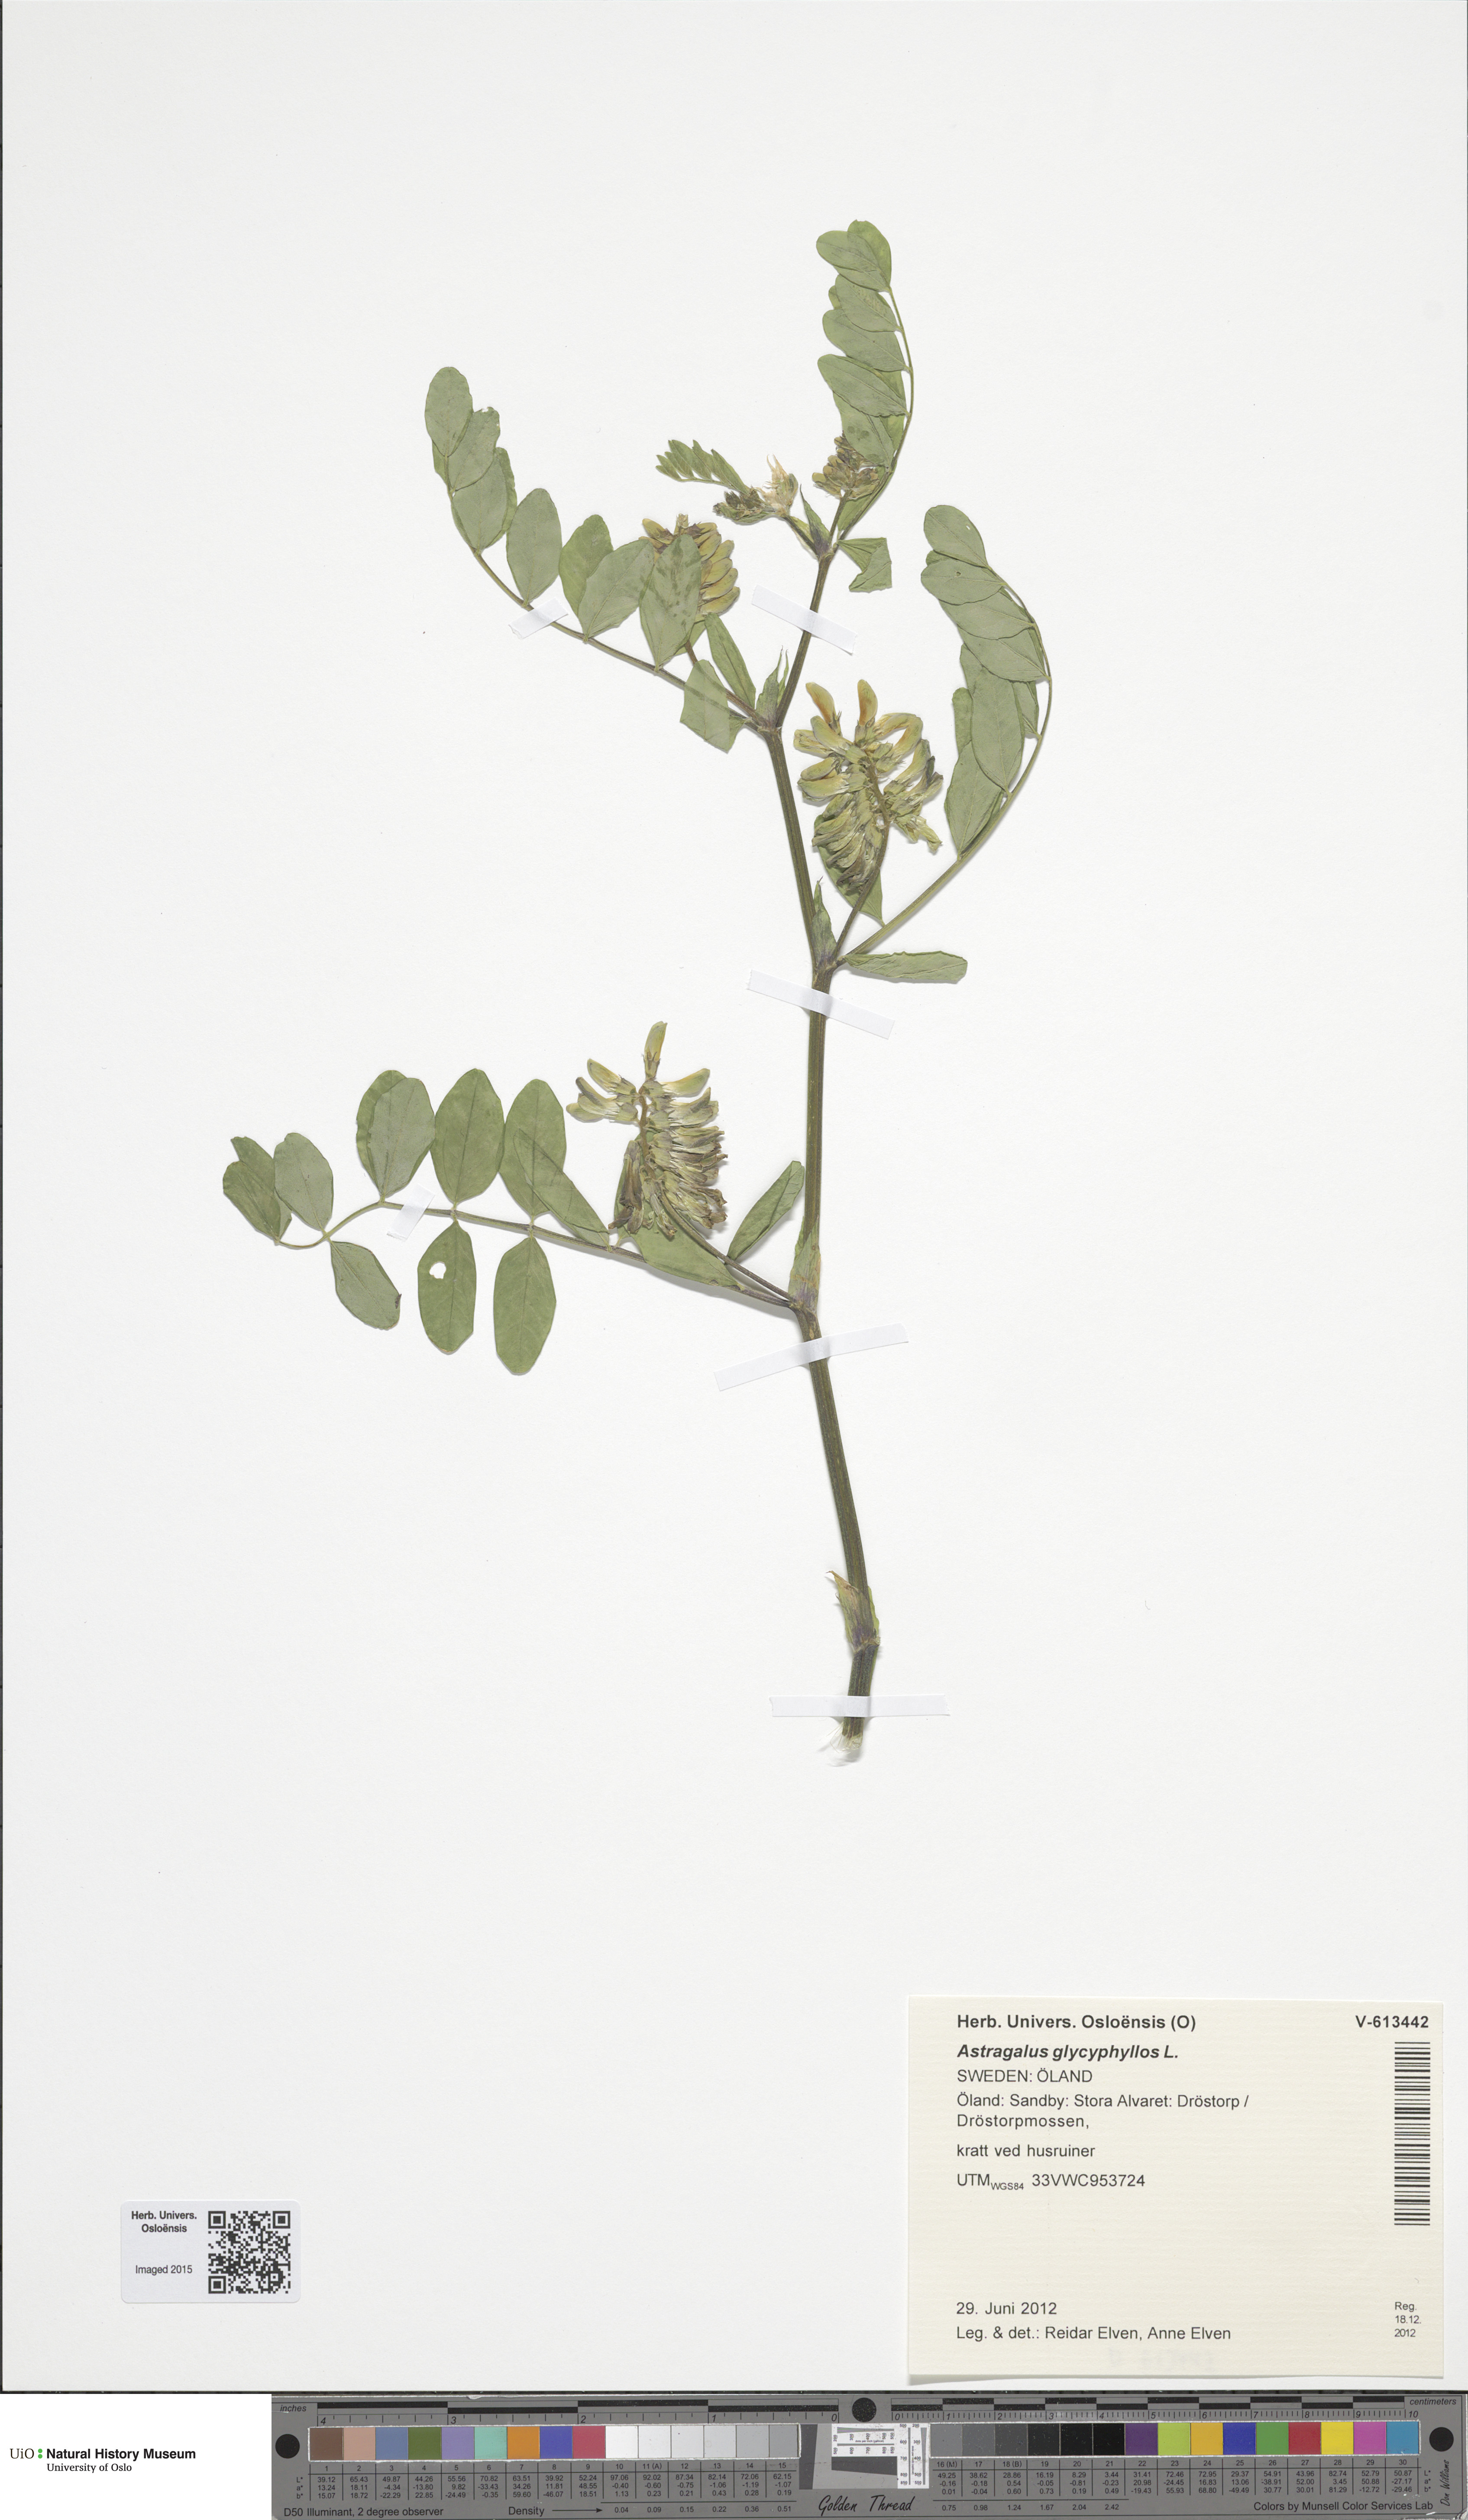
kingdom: Plantae
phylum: Tracheophyta
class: Magnoliopsida
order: Fabales
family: Fabaceae
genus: Astragalus
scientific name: Astragalus glycyphyllos
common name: Wild liquorice
